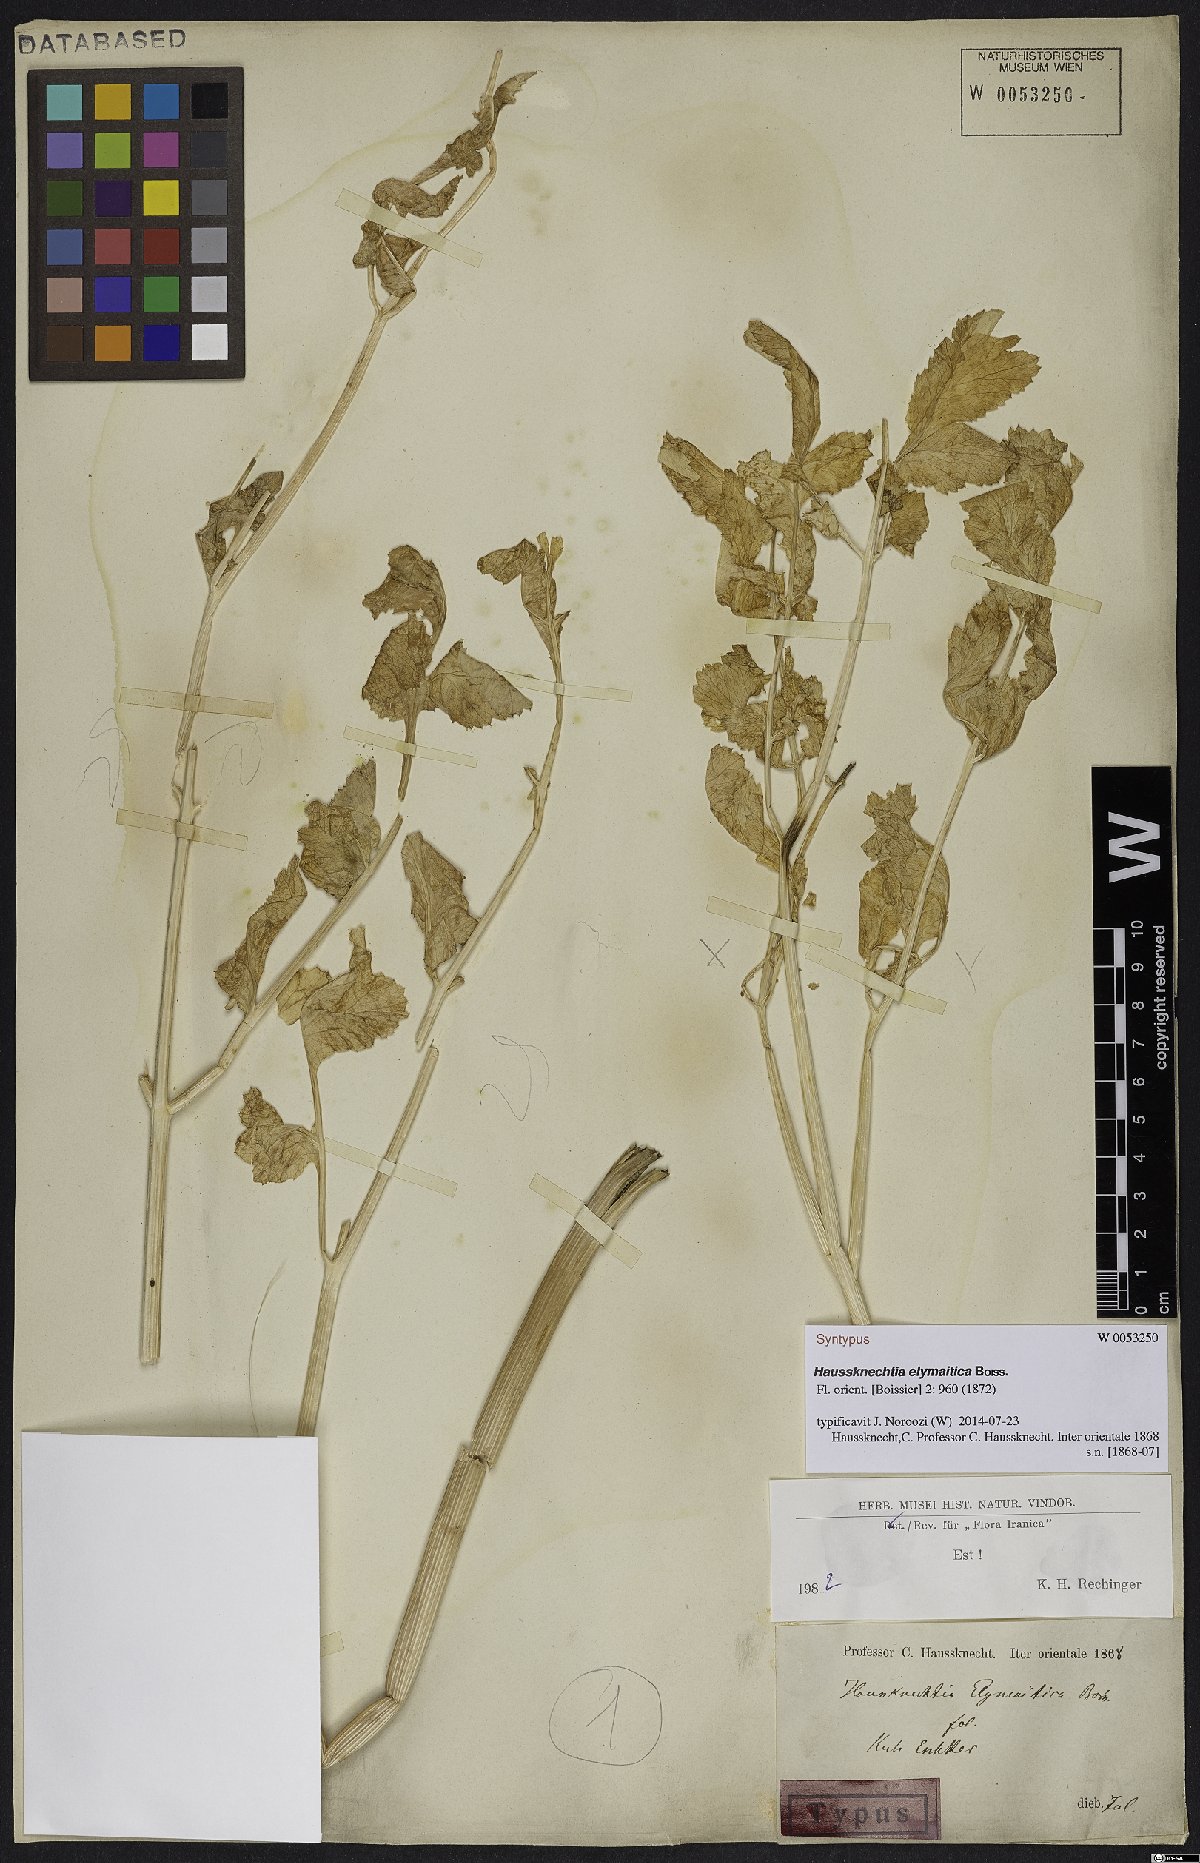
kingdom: Plantae
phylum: Tracheophyta
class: Magnoliopsida
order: Apiales
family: Apiaceae
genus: Haussknechtia
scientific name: Haussknechtia elymaitica
